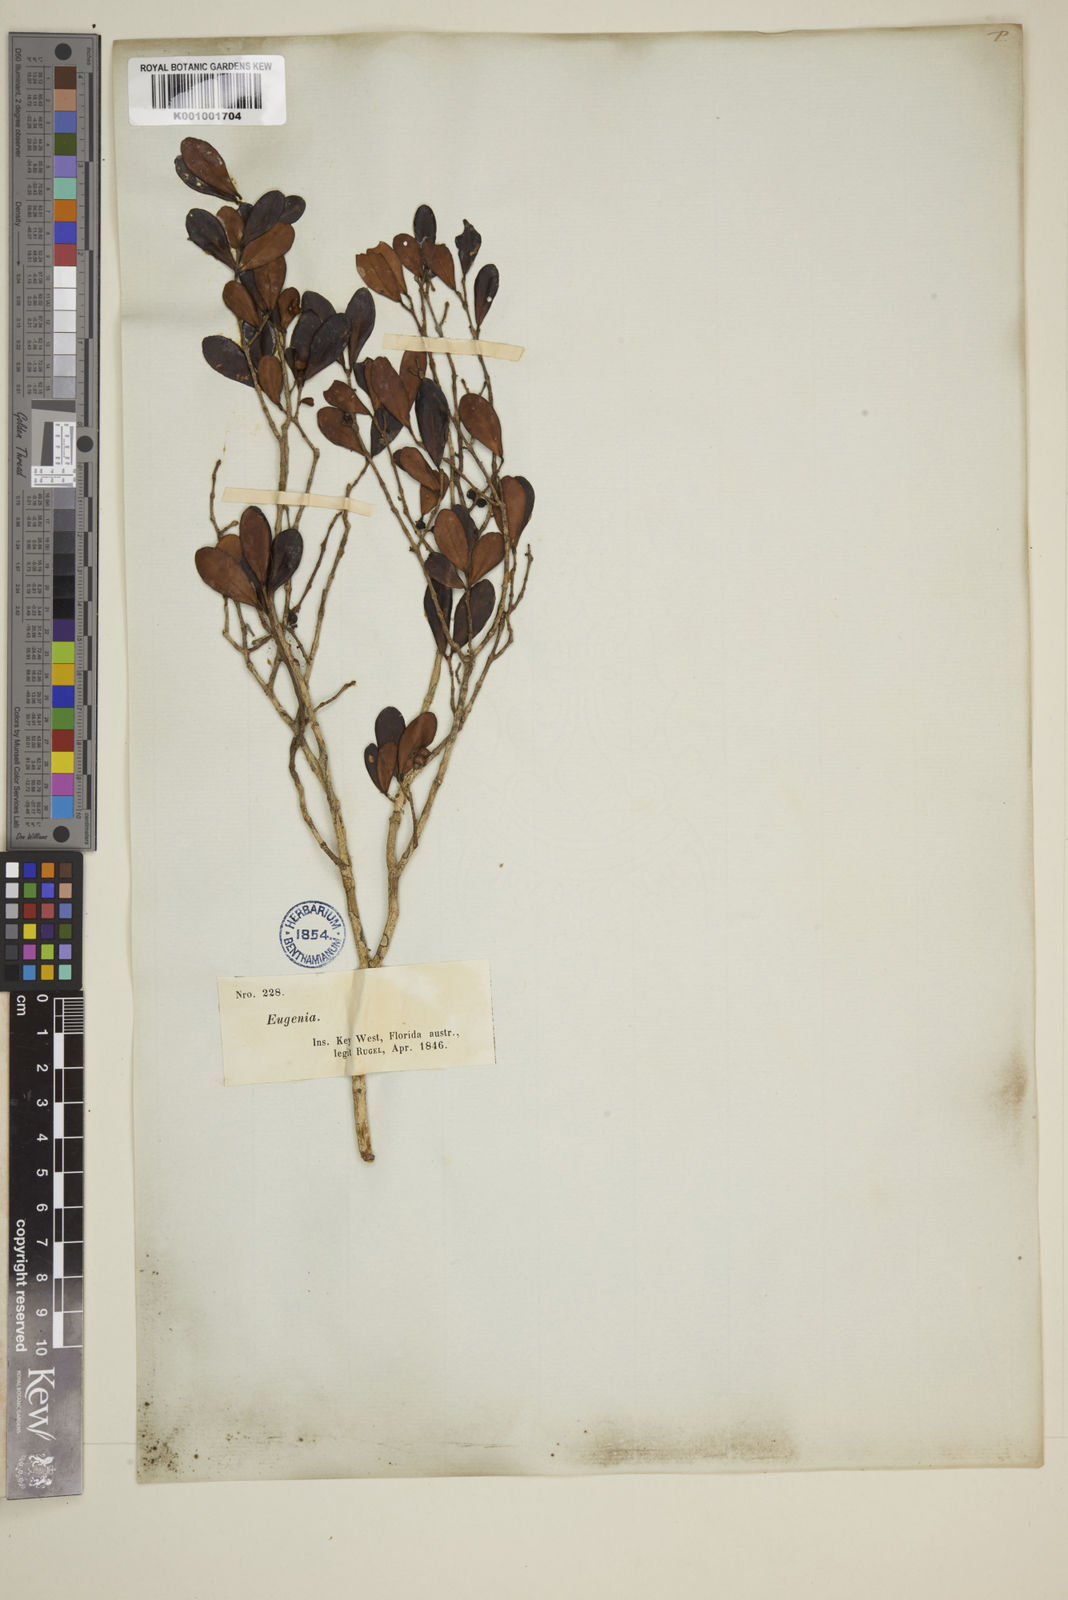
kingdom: Plantae
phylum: Tracheophyta
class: Magnoliopsida
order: Myrtales
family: Myrtaceae
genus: Eugenia
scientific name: Eugenia buxifolia
